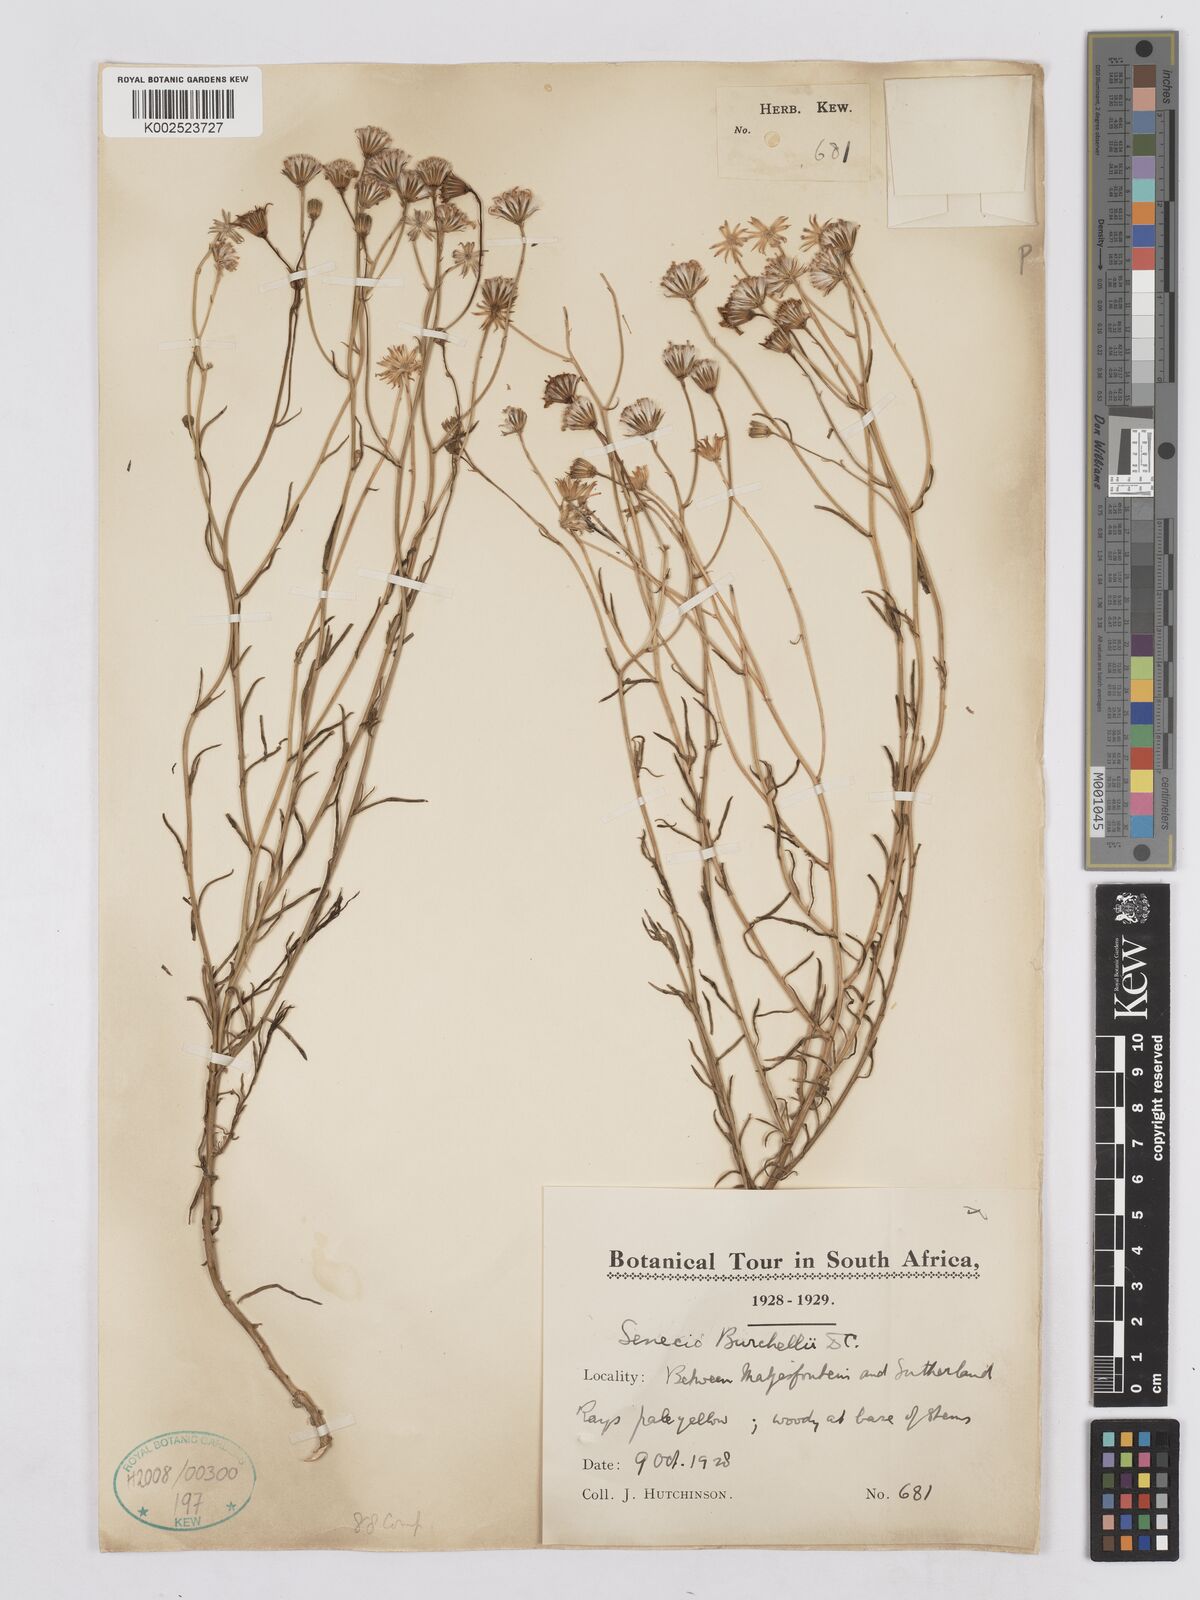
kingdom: Plantae
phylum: Tracheophyta
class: Magnoliopsida
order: Asterales
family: Asteraceae
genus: Senecio
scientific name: Senecio burchellii
